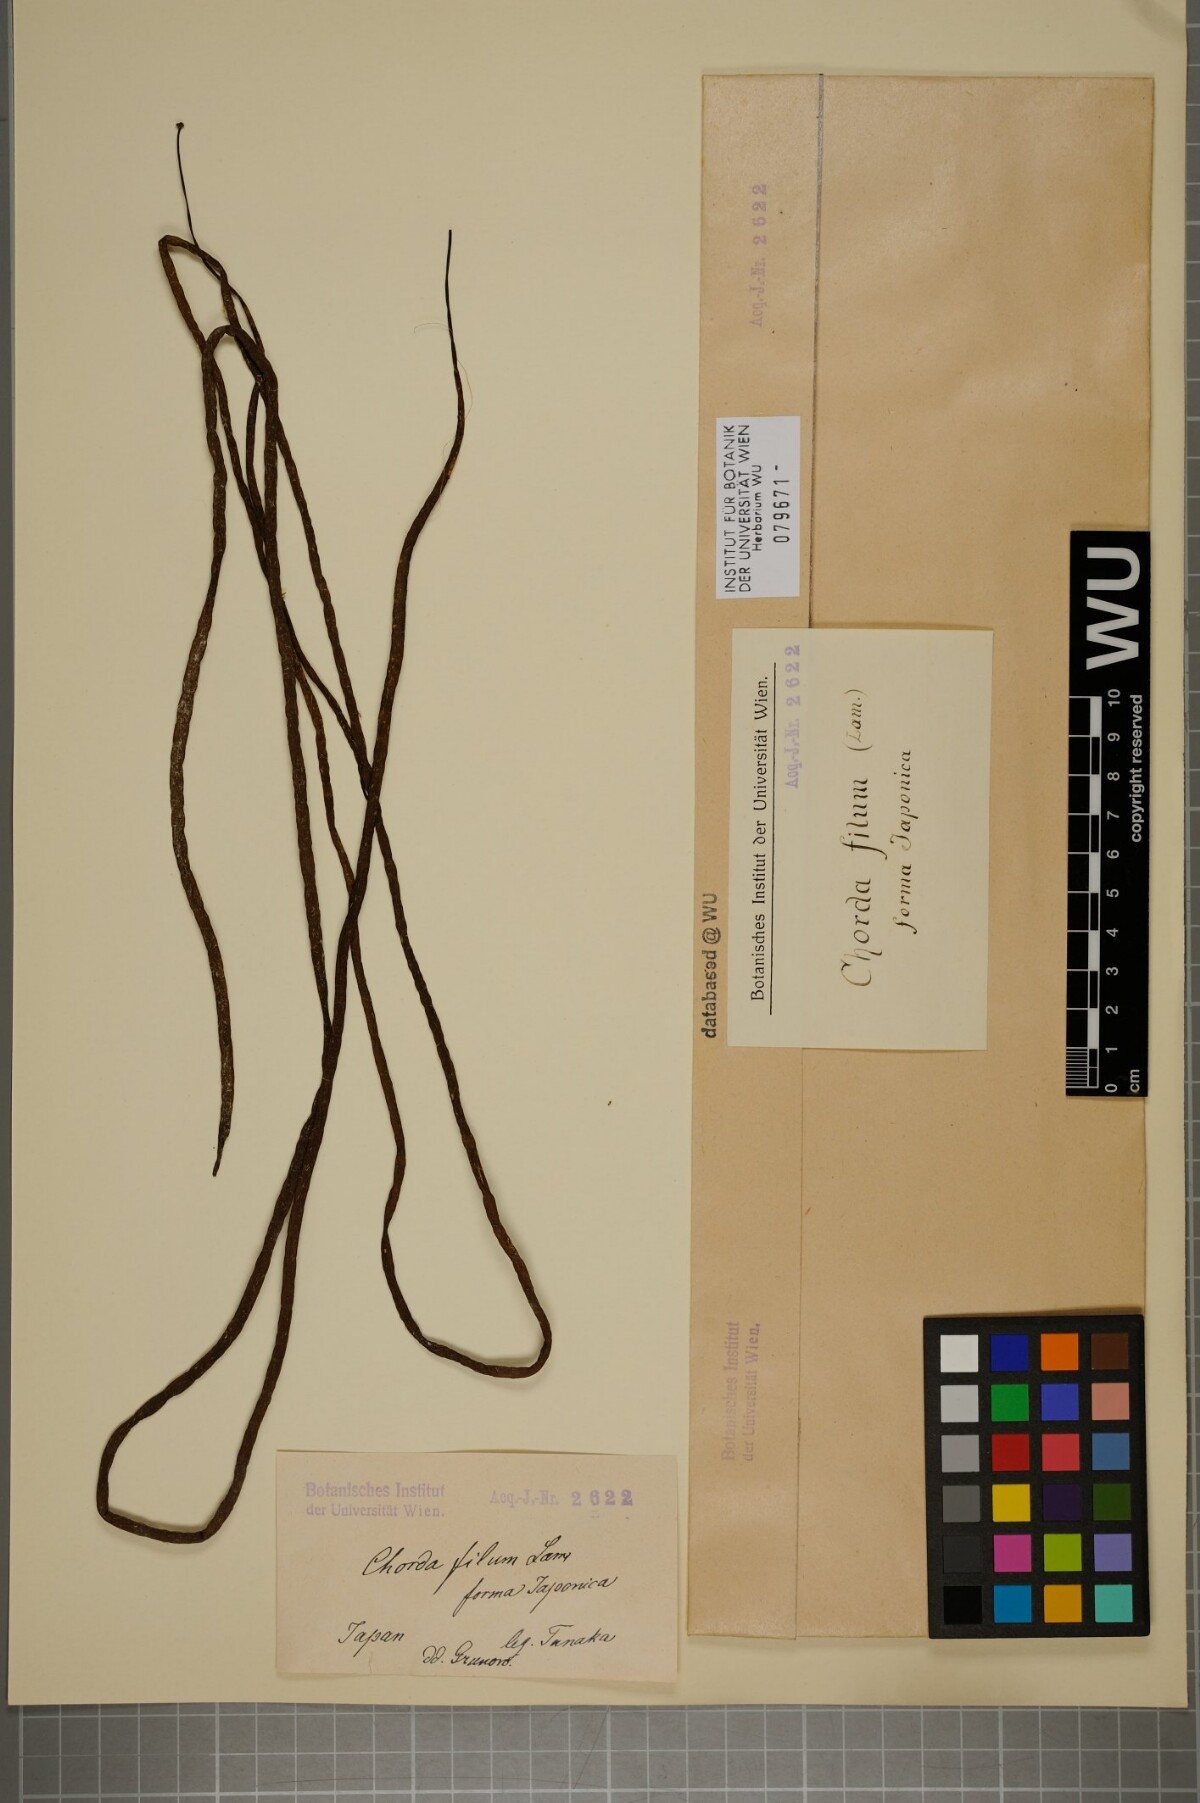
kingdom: Chromista
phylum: Ochrophyta
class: Phaeophyceae
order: Laminariales
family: Chordaceae
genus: Chorda
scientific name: Chorda filum
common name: Mermaid's tresses
